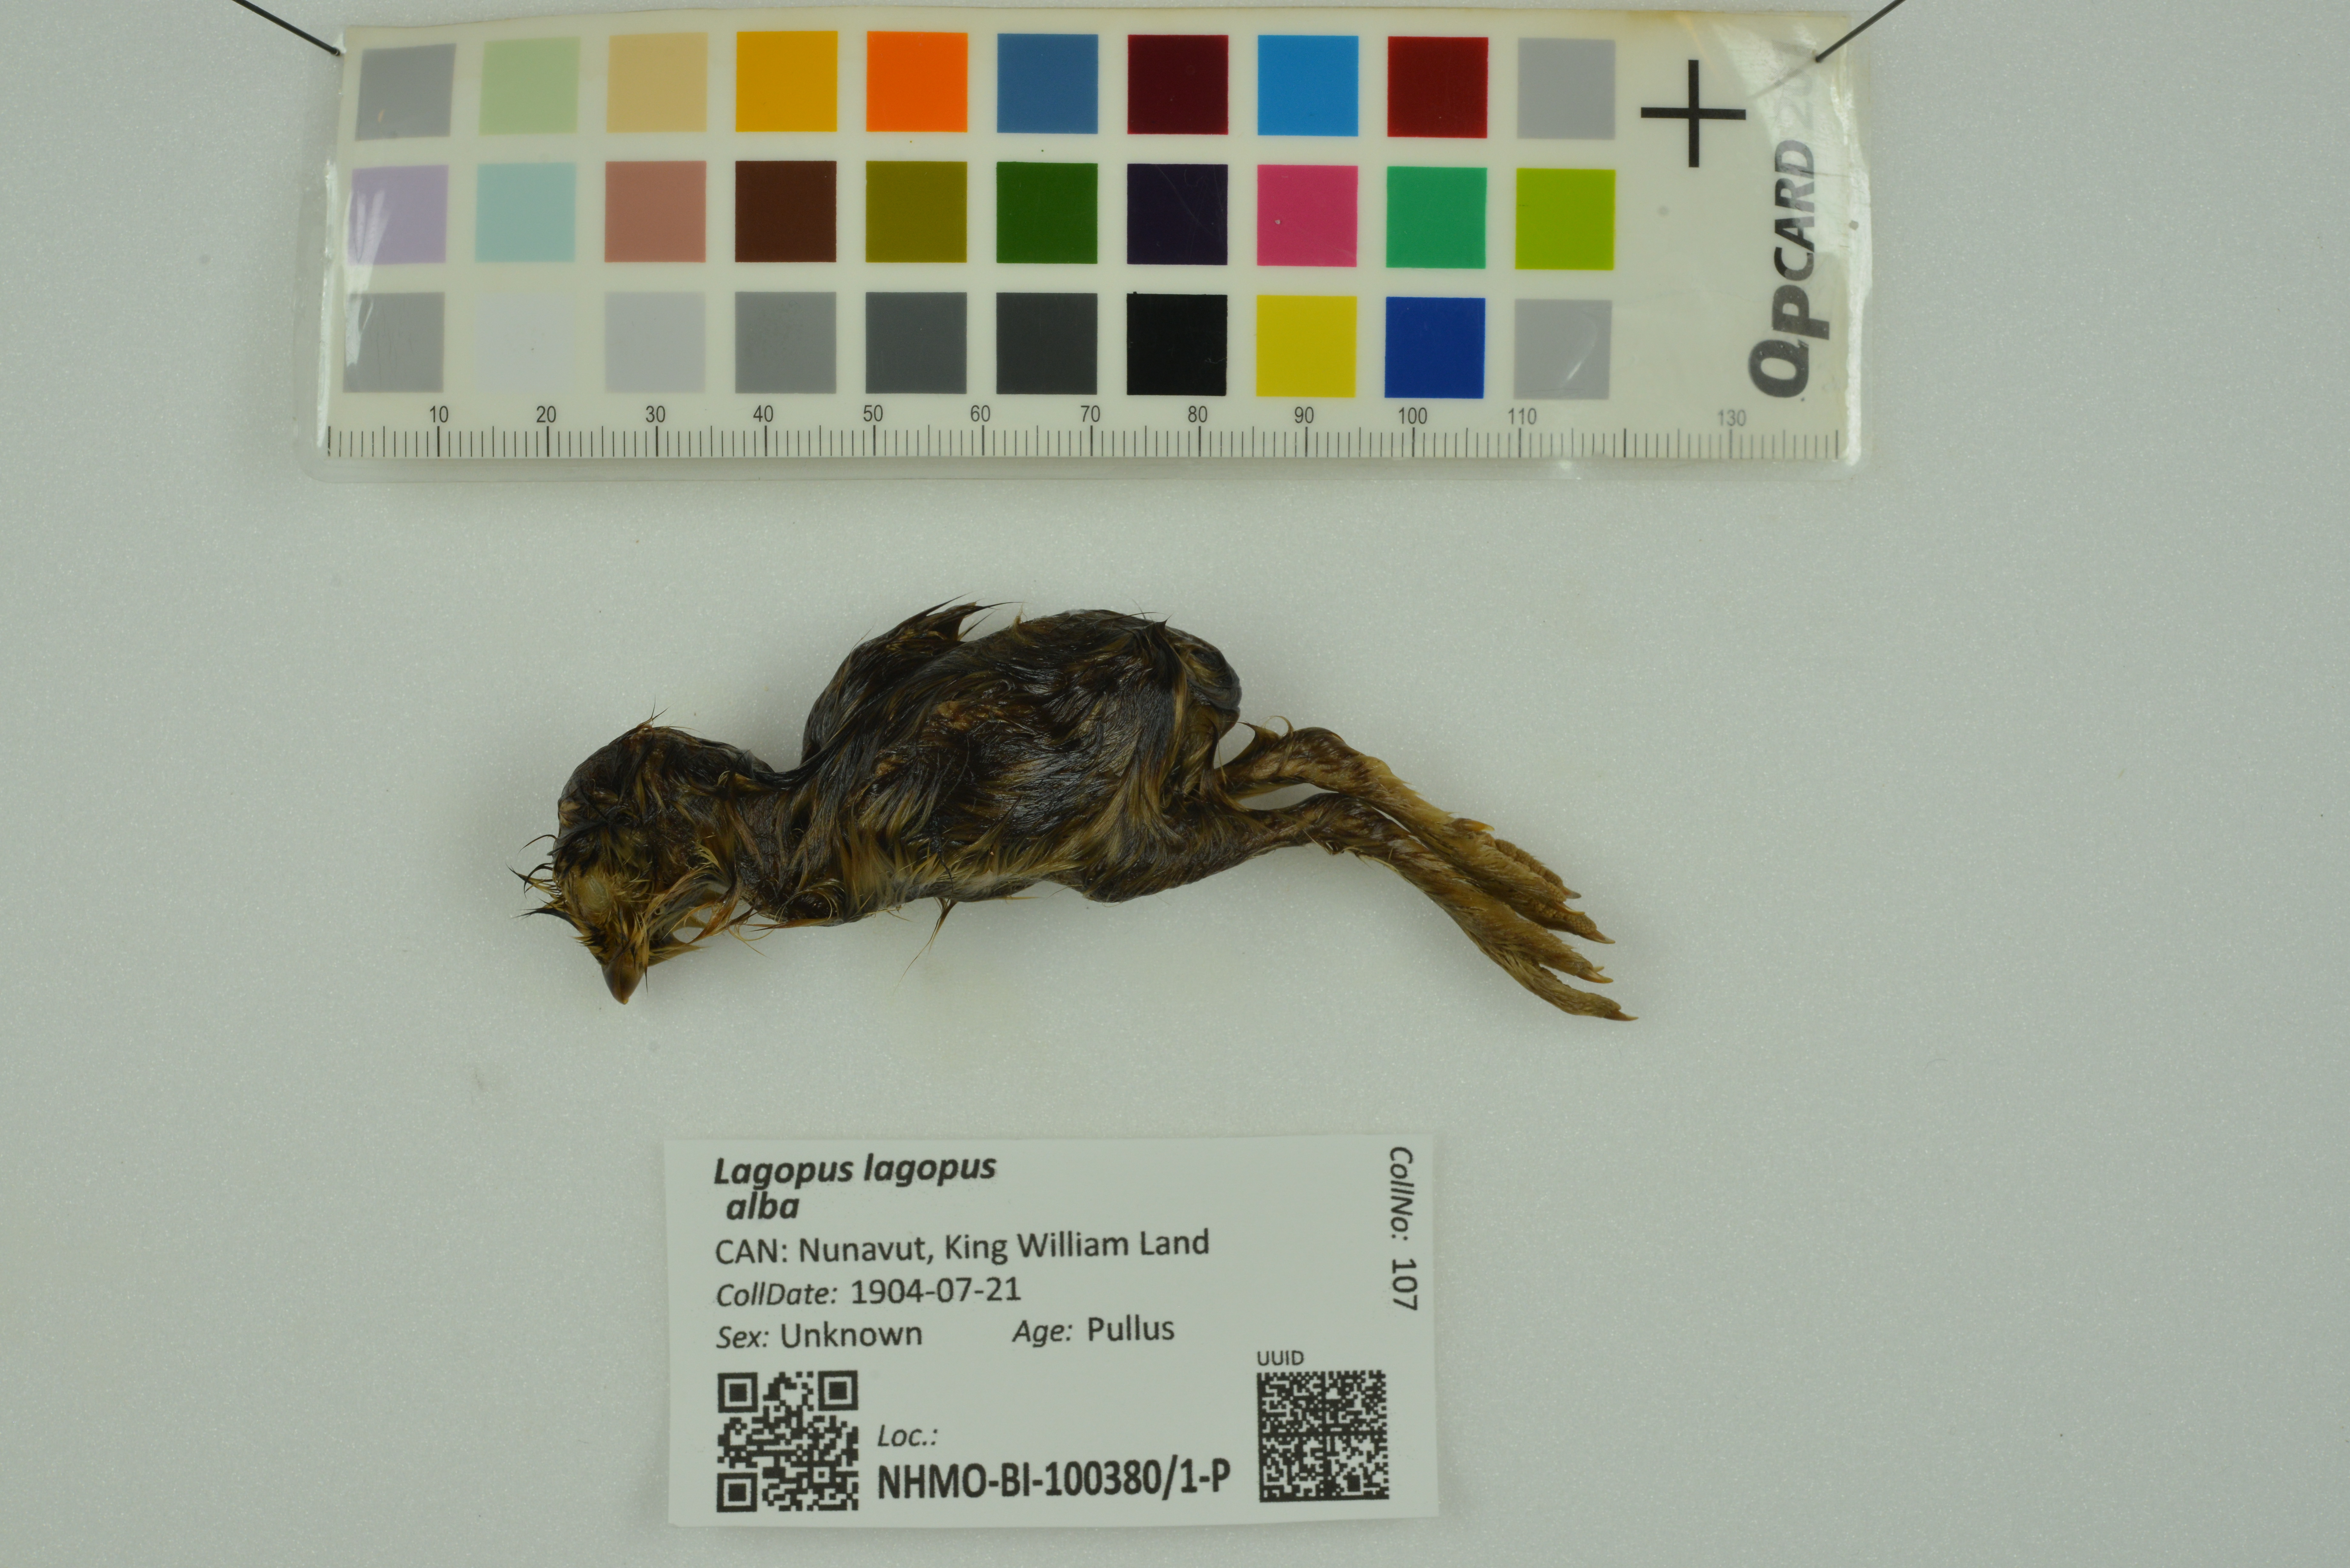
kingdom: Animalia
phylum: Chordata
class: Aves
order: Galliformes
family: Phasianidae
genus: Lagopus
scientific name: Lagopus lagopus
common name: Willow ptarmigan
